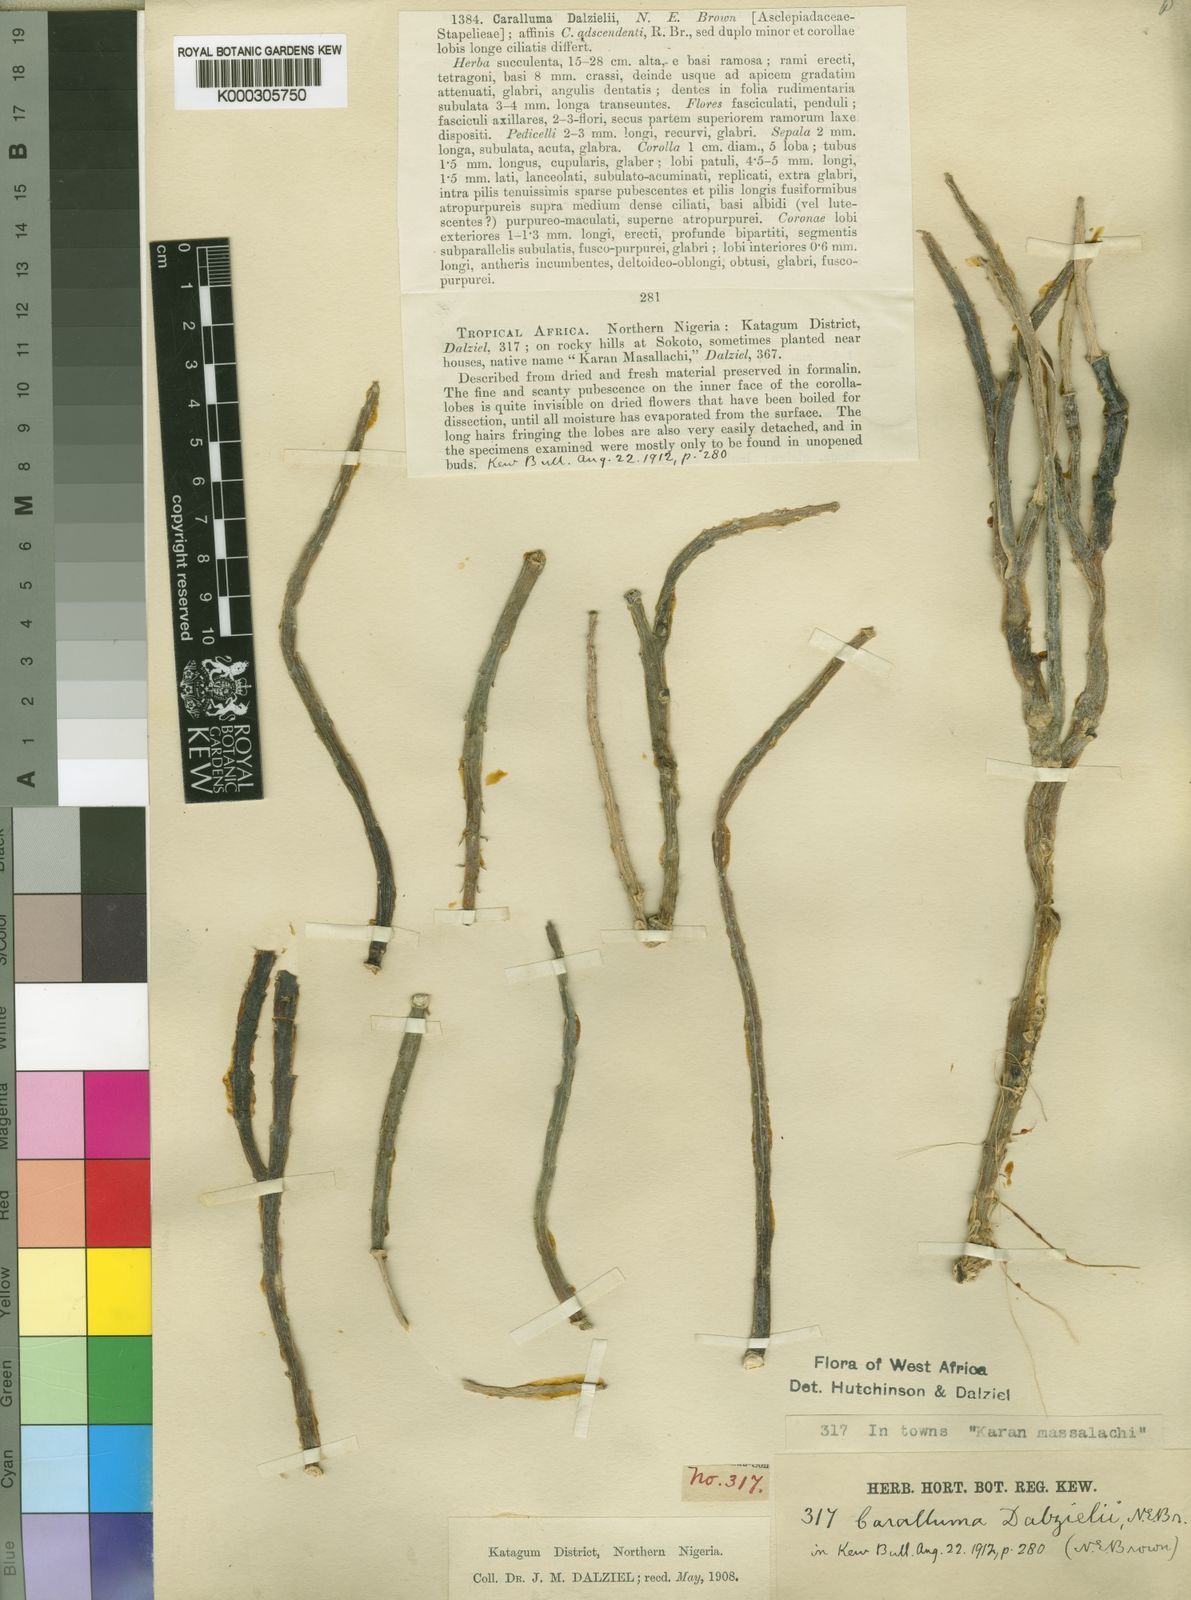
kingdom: Plantae
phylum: Tracheophyta
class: Magnoliopsida
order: Gentianales
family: Apocynaceae
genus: Ceropegia
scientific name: Ceropegia sudanica
